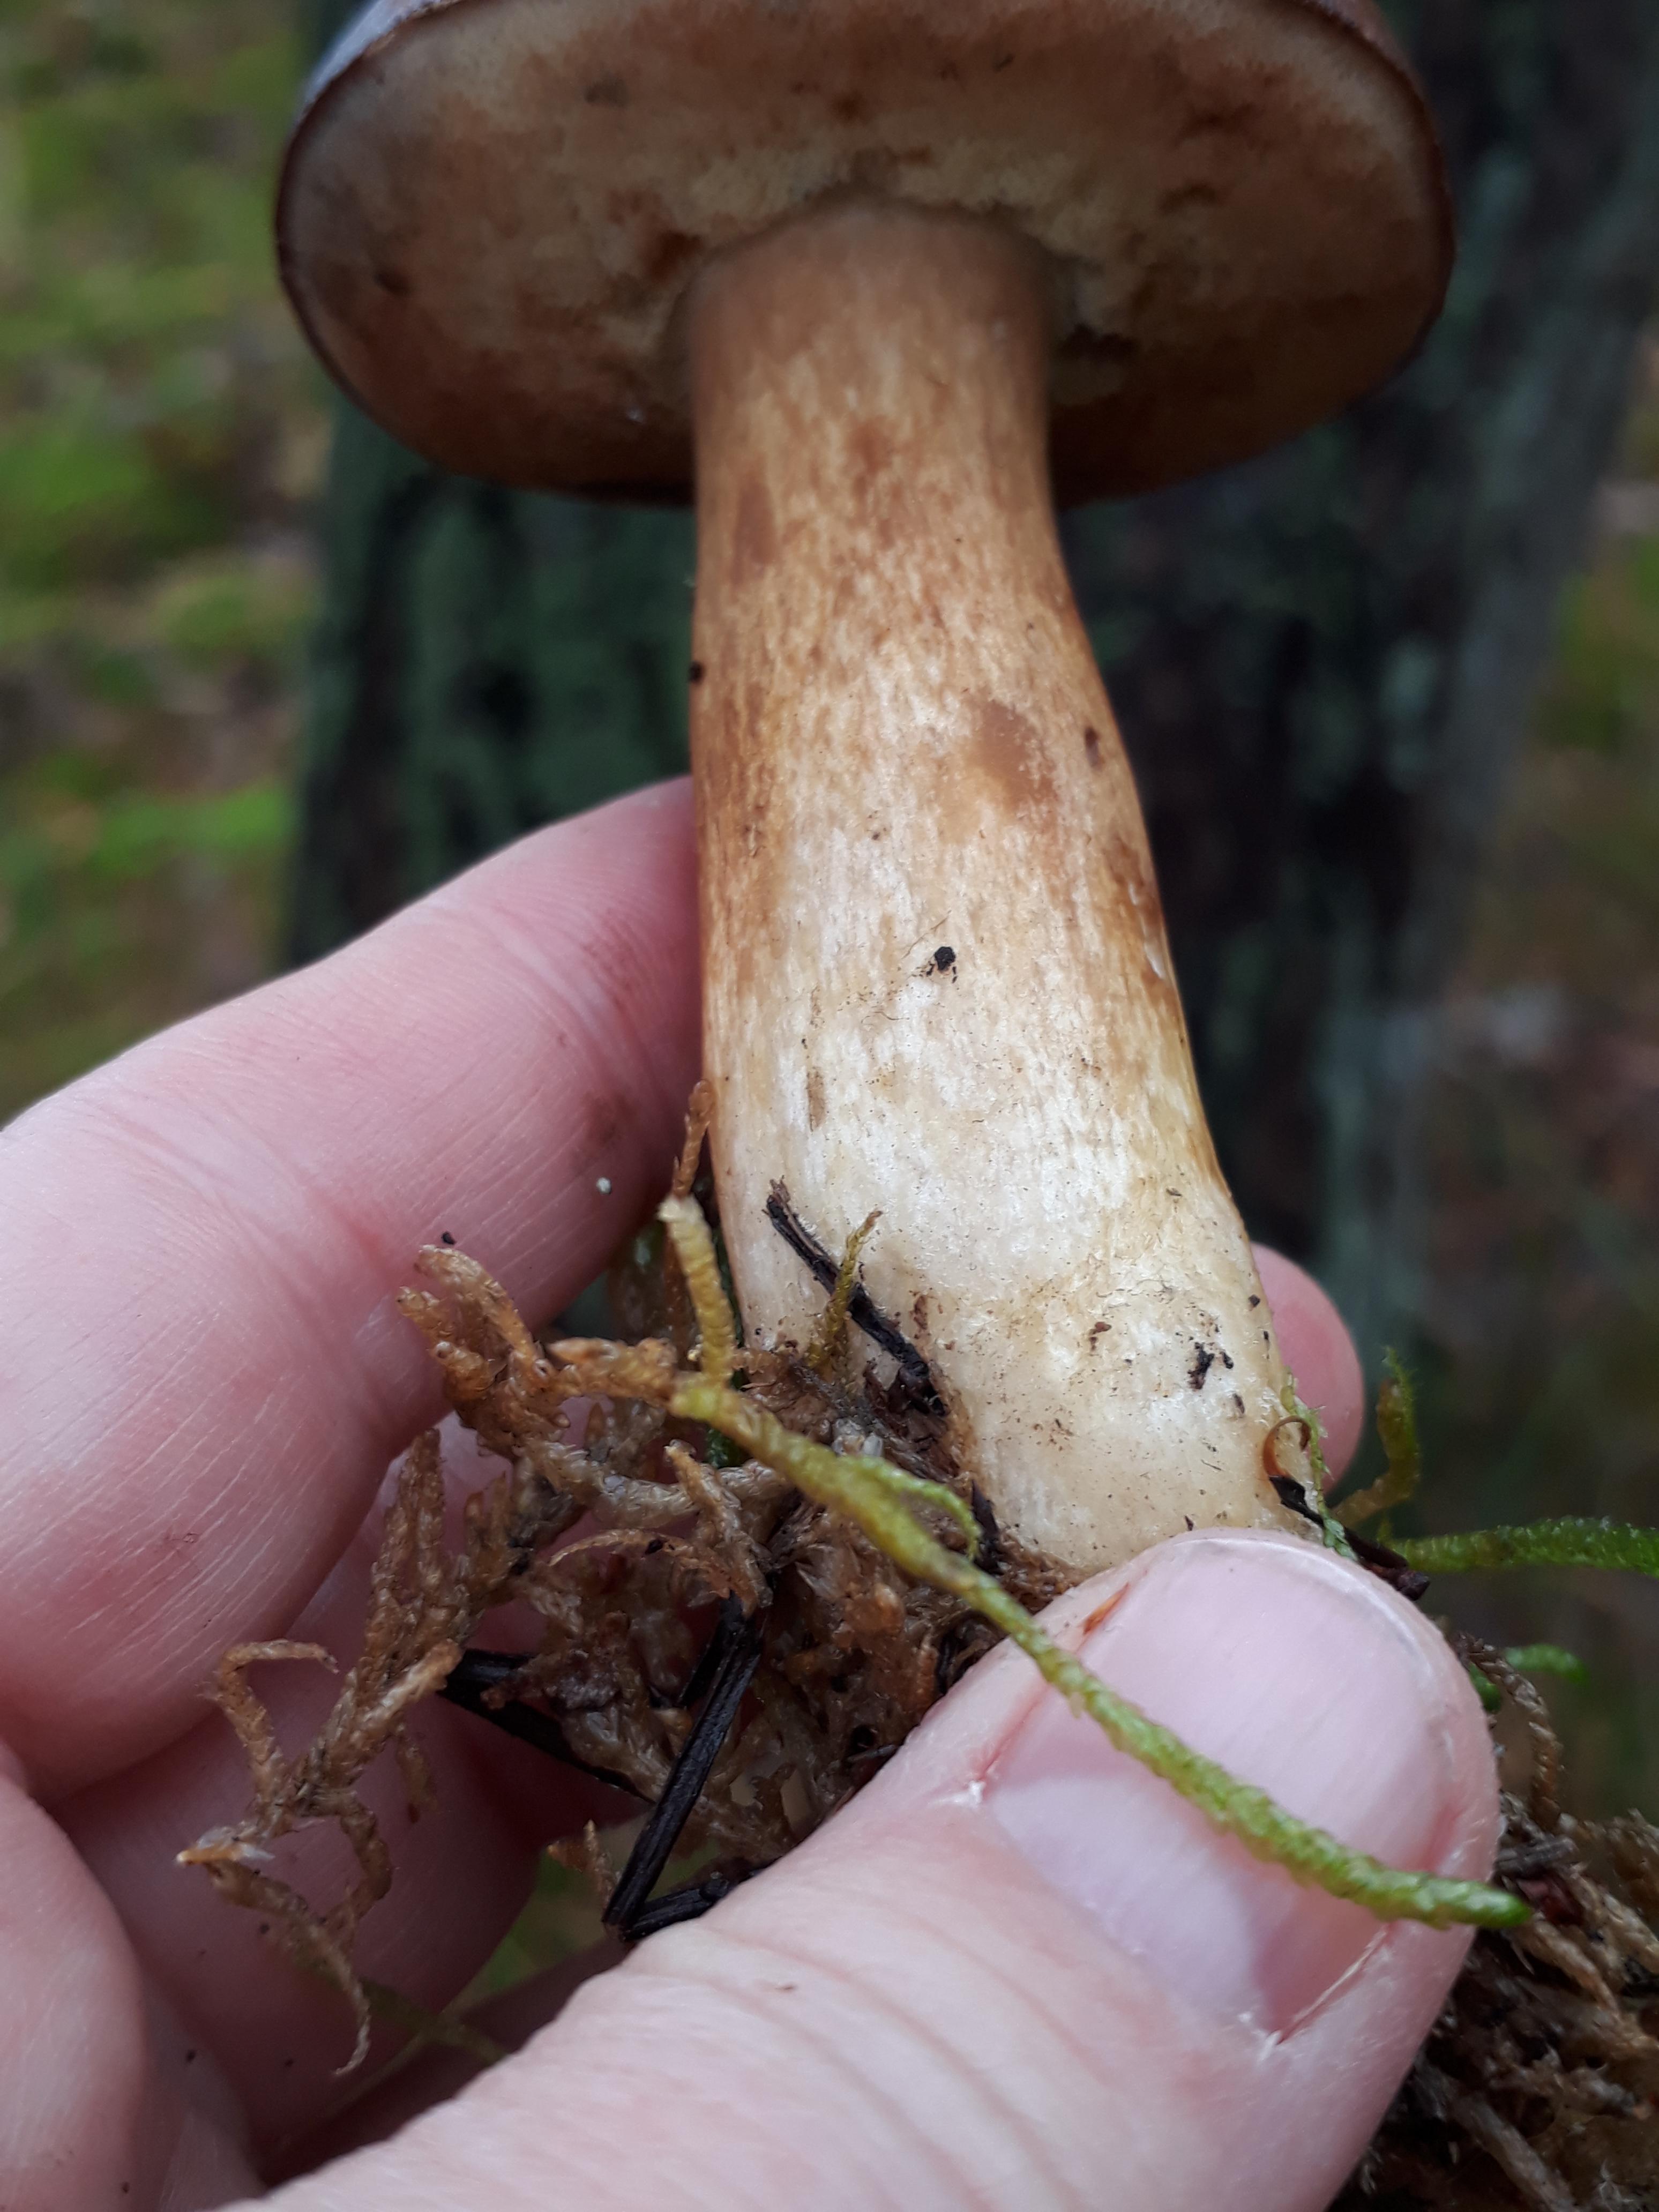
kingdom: Fungi
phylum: Basidiomycota
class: Agaricomycetes
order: Boletales
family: Boletaceae
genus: Imleria
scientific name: Imleria badia
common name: brunstokket rørhat
